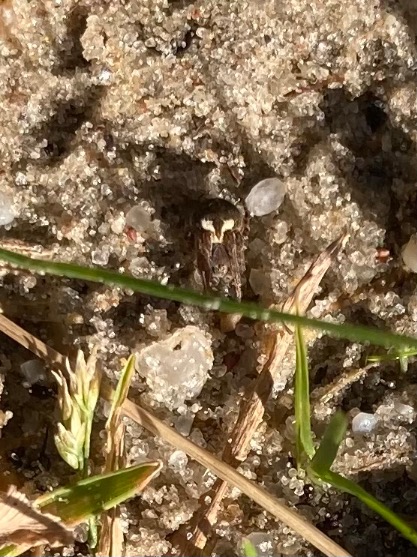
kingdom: Animalia
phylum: Arthropoda
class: Arachnida
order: Araneae
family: Araneidae
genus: Agalenatea
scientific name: Agalenatea redii
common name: Lodden hjulspinder
